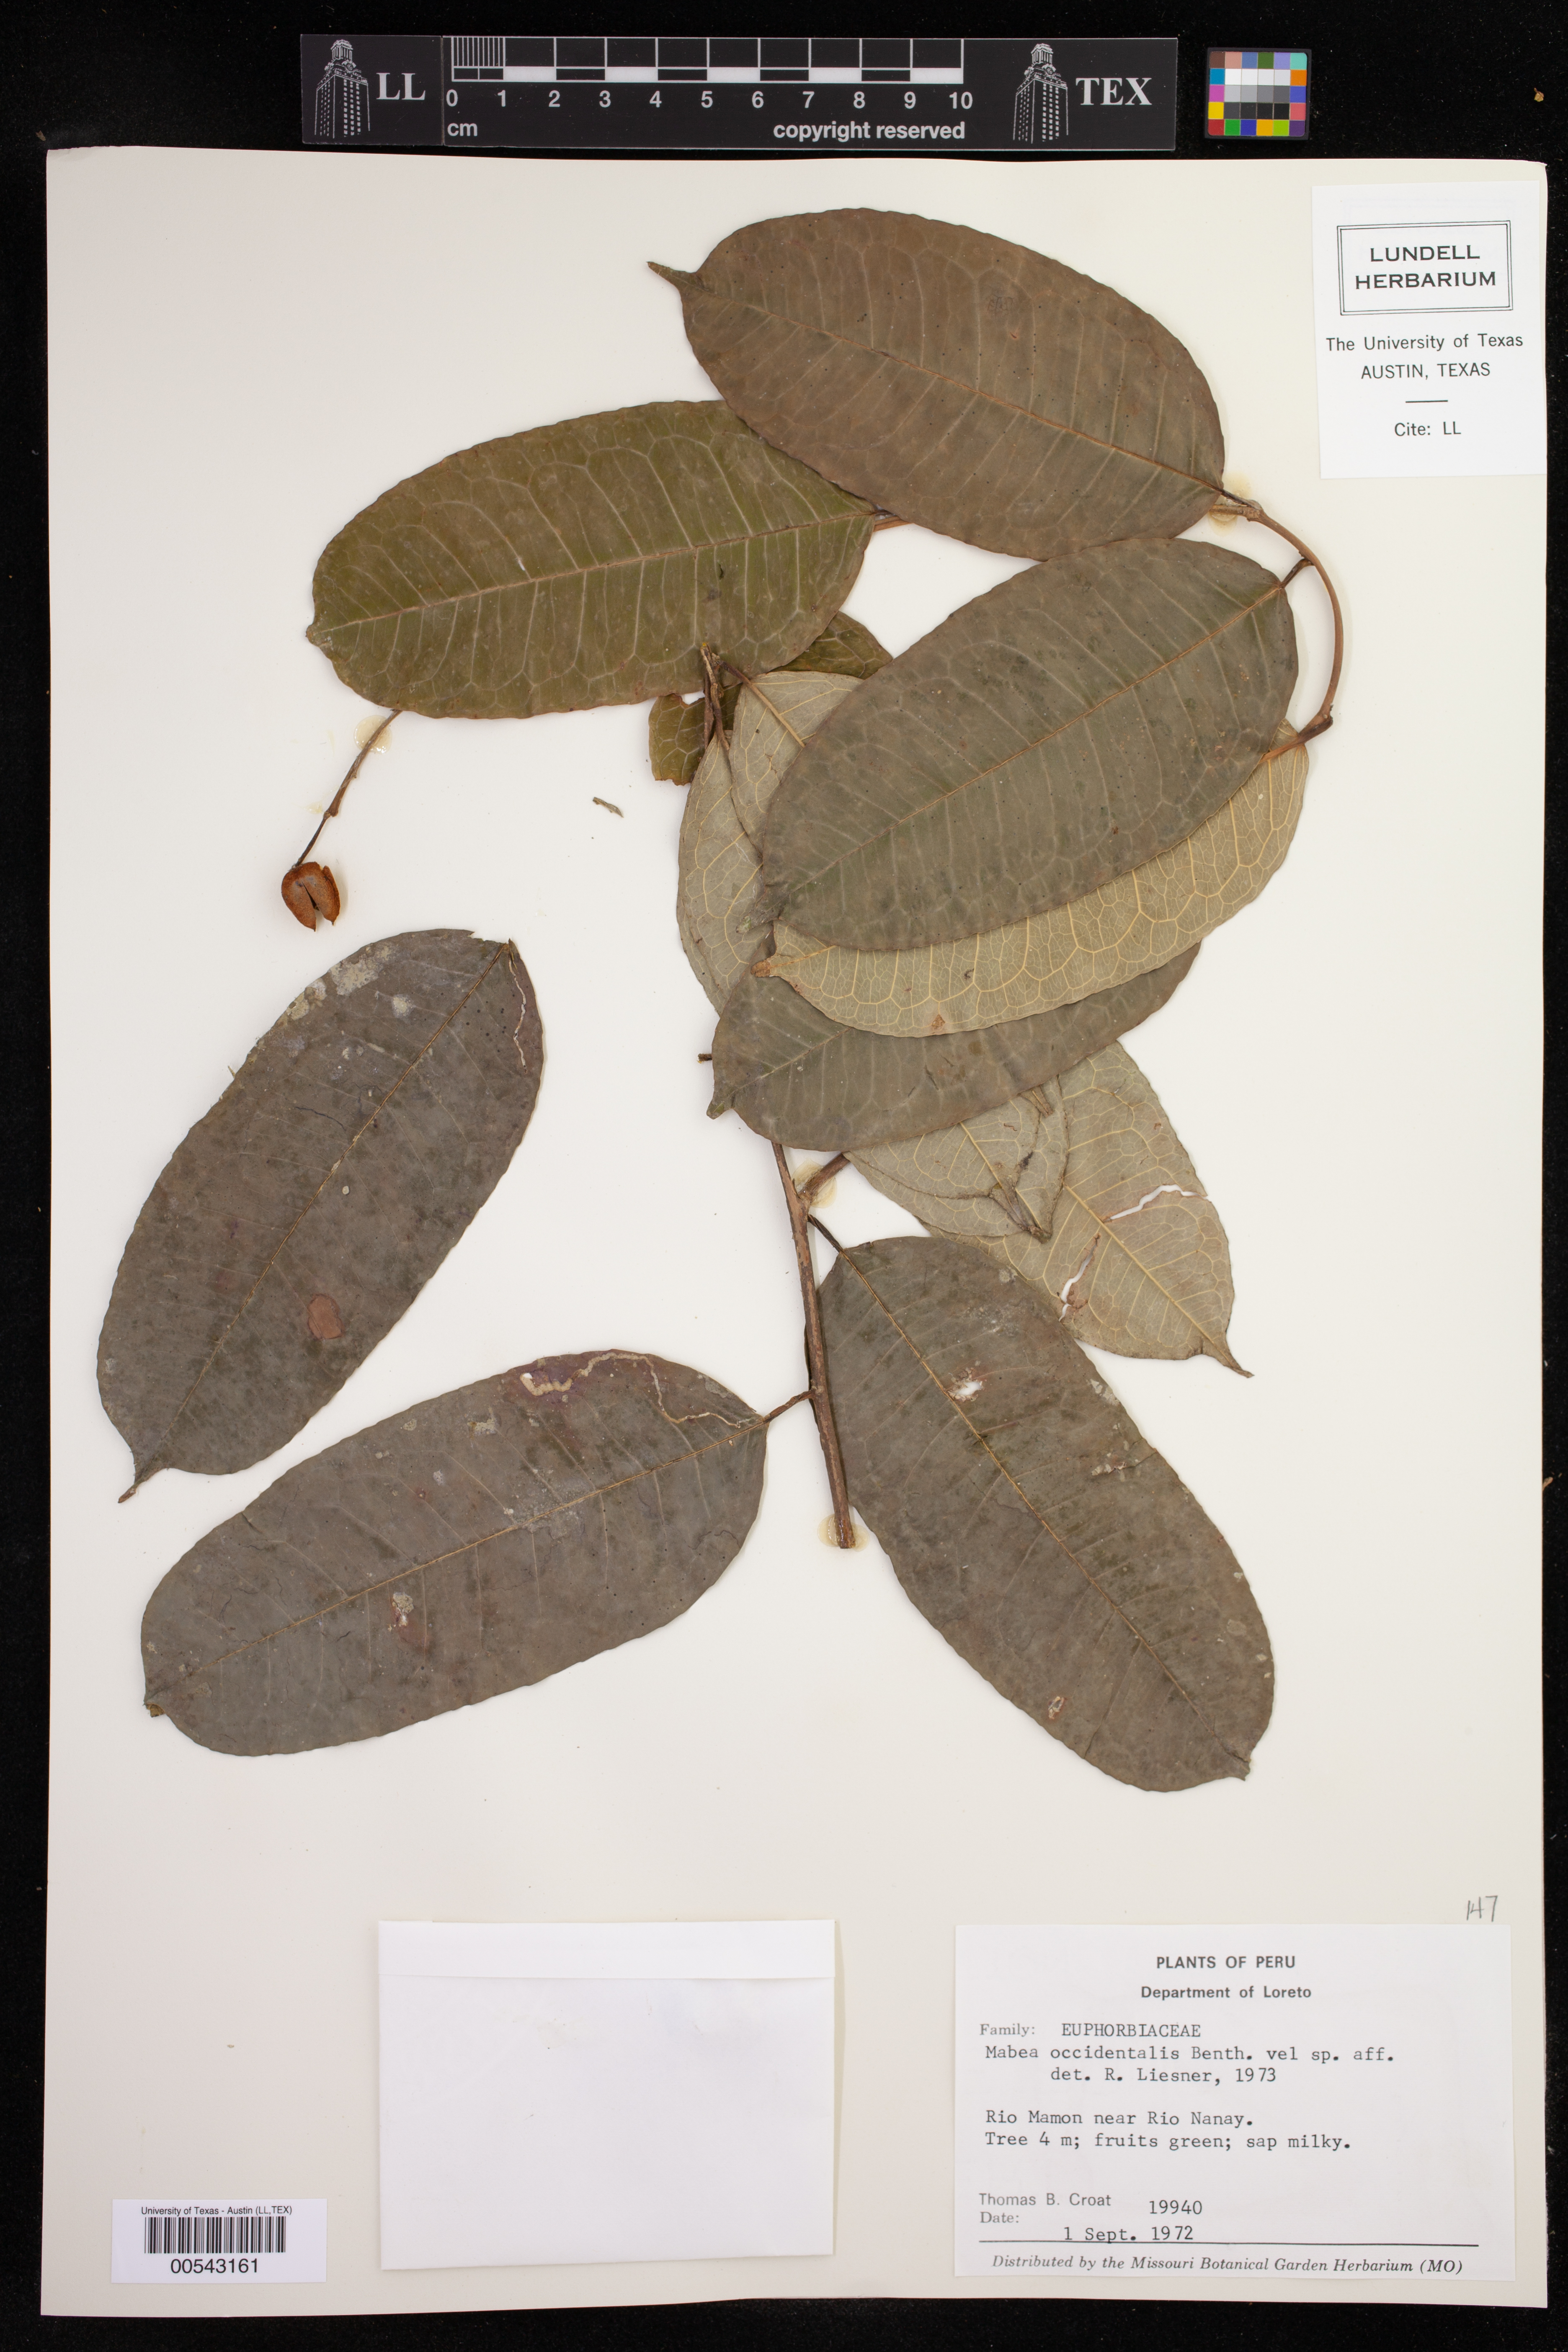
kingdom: Plantae
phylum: Tracheophyta
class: Magnoliopsida
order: Malpighiales
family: Euphorbiaceae
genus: Mabea
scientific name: Mabea occidentalis
